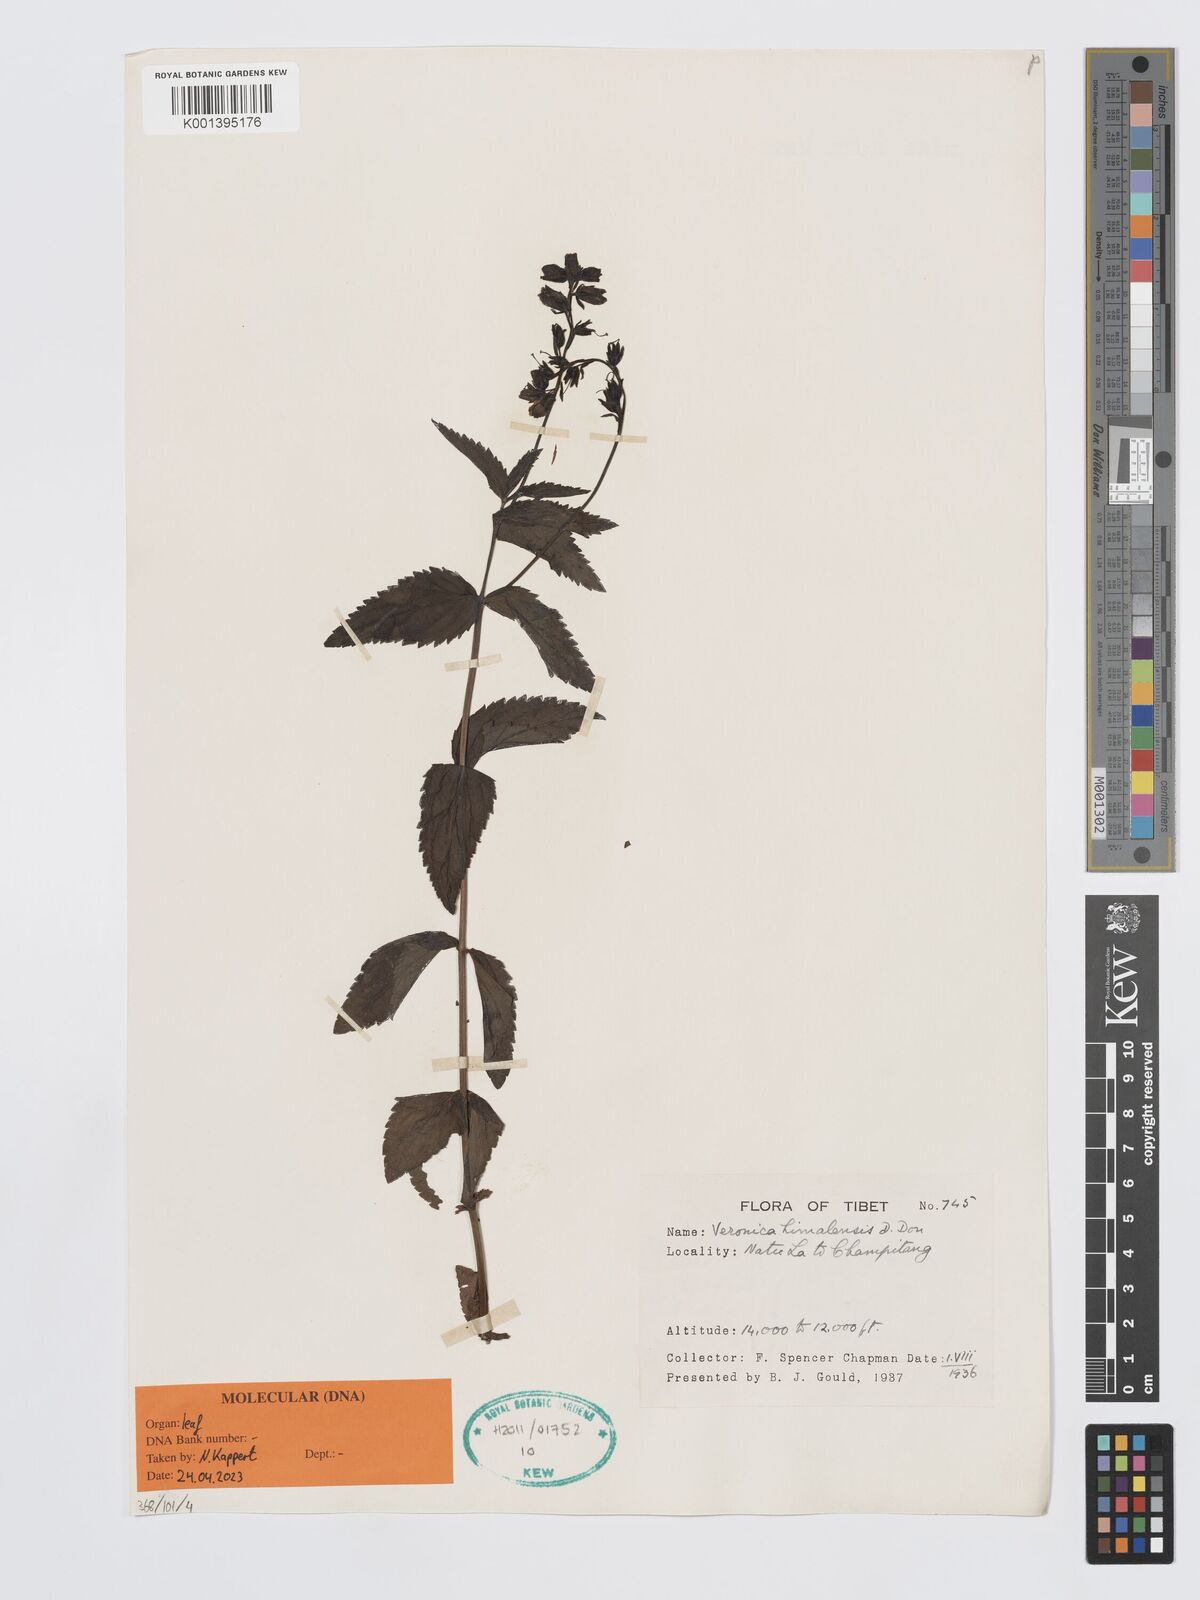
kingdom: Plantae
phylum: Tracheophyta
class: Magnoliopsida
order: Lamiales
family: Plantaginaceae
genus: Veronica
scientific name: Veronica himalensis
